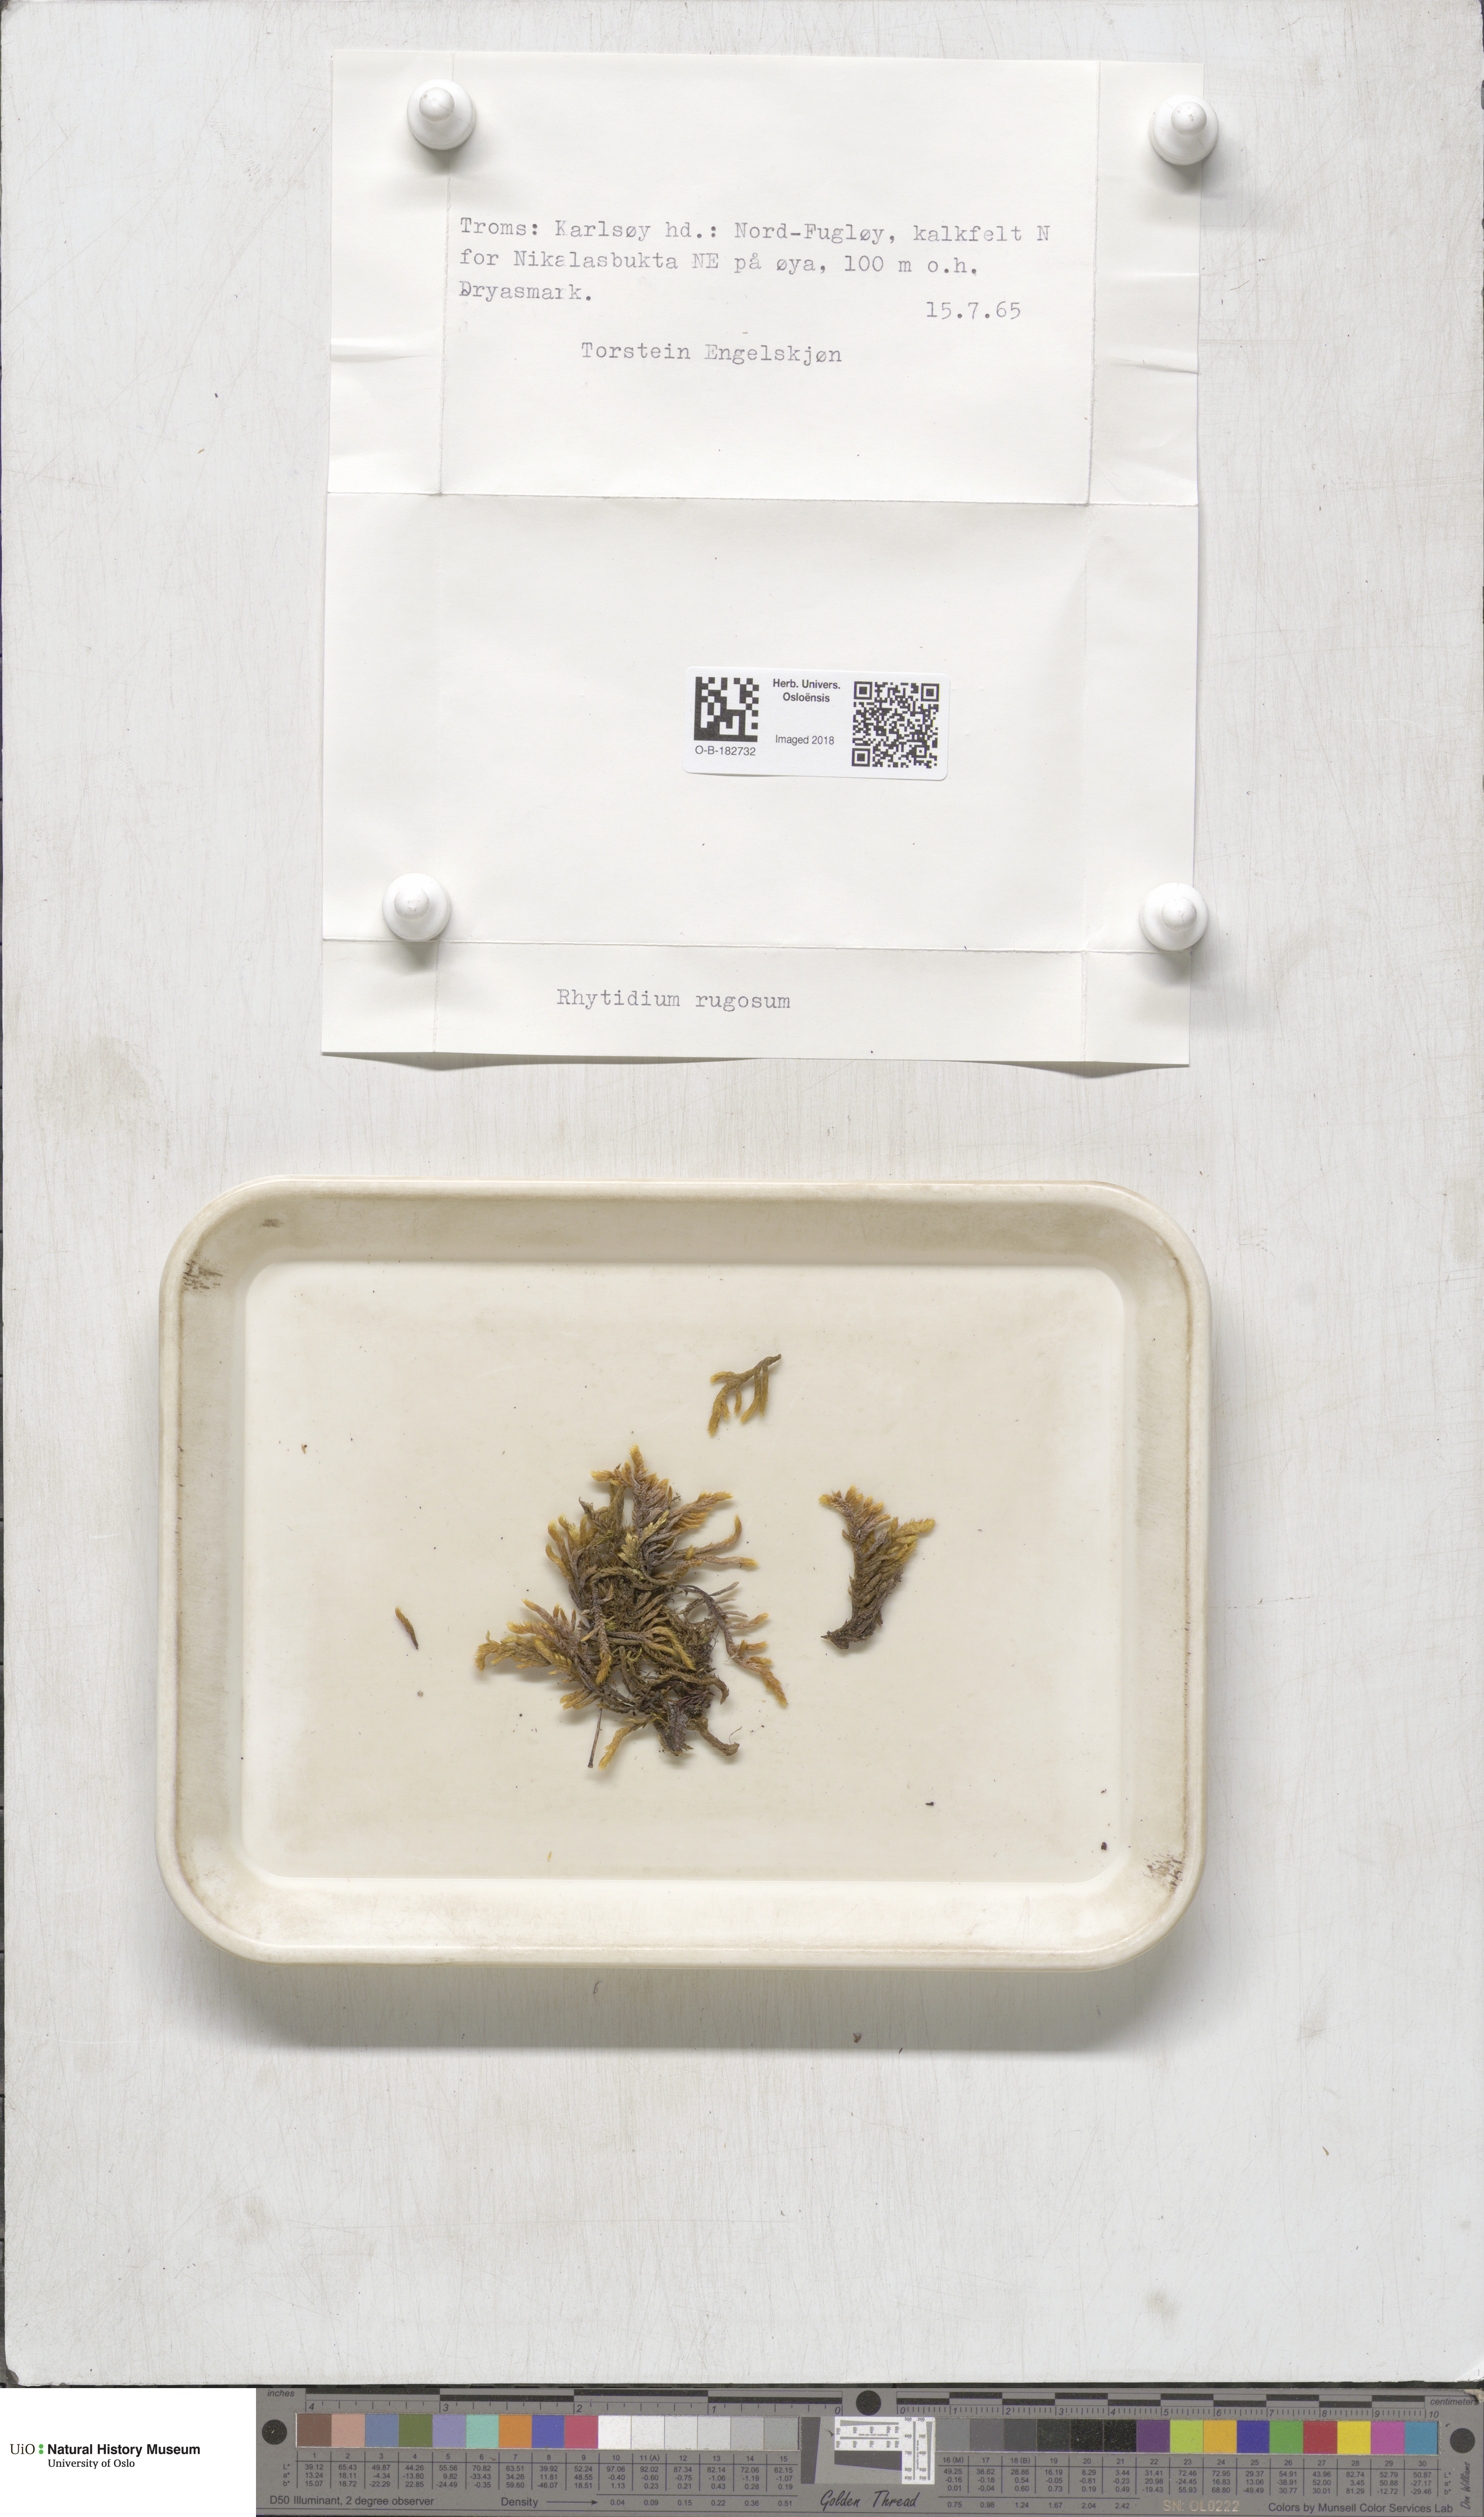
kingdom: Plantae
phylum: Bryophyta
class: Bryopsida
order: Hypnales
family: Rhytidiaceae
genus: Rhytidium
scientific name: Rhytidium rugosum
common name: Wrinkle-leaved moss
